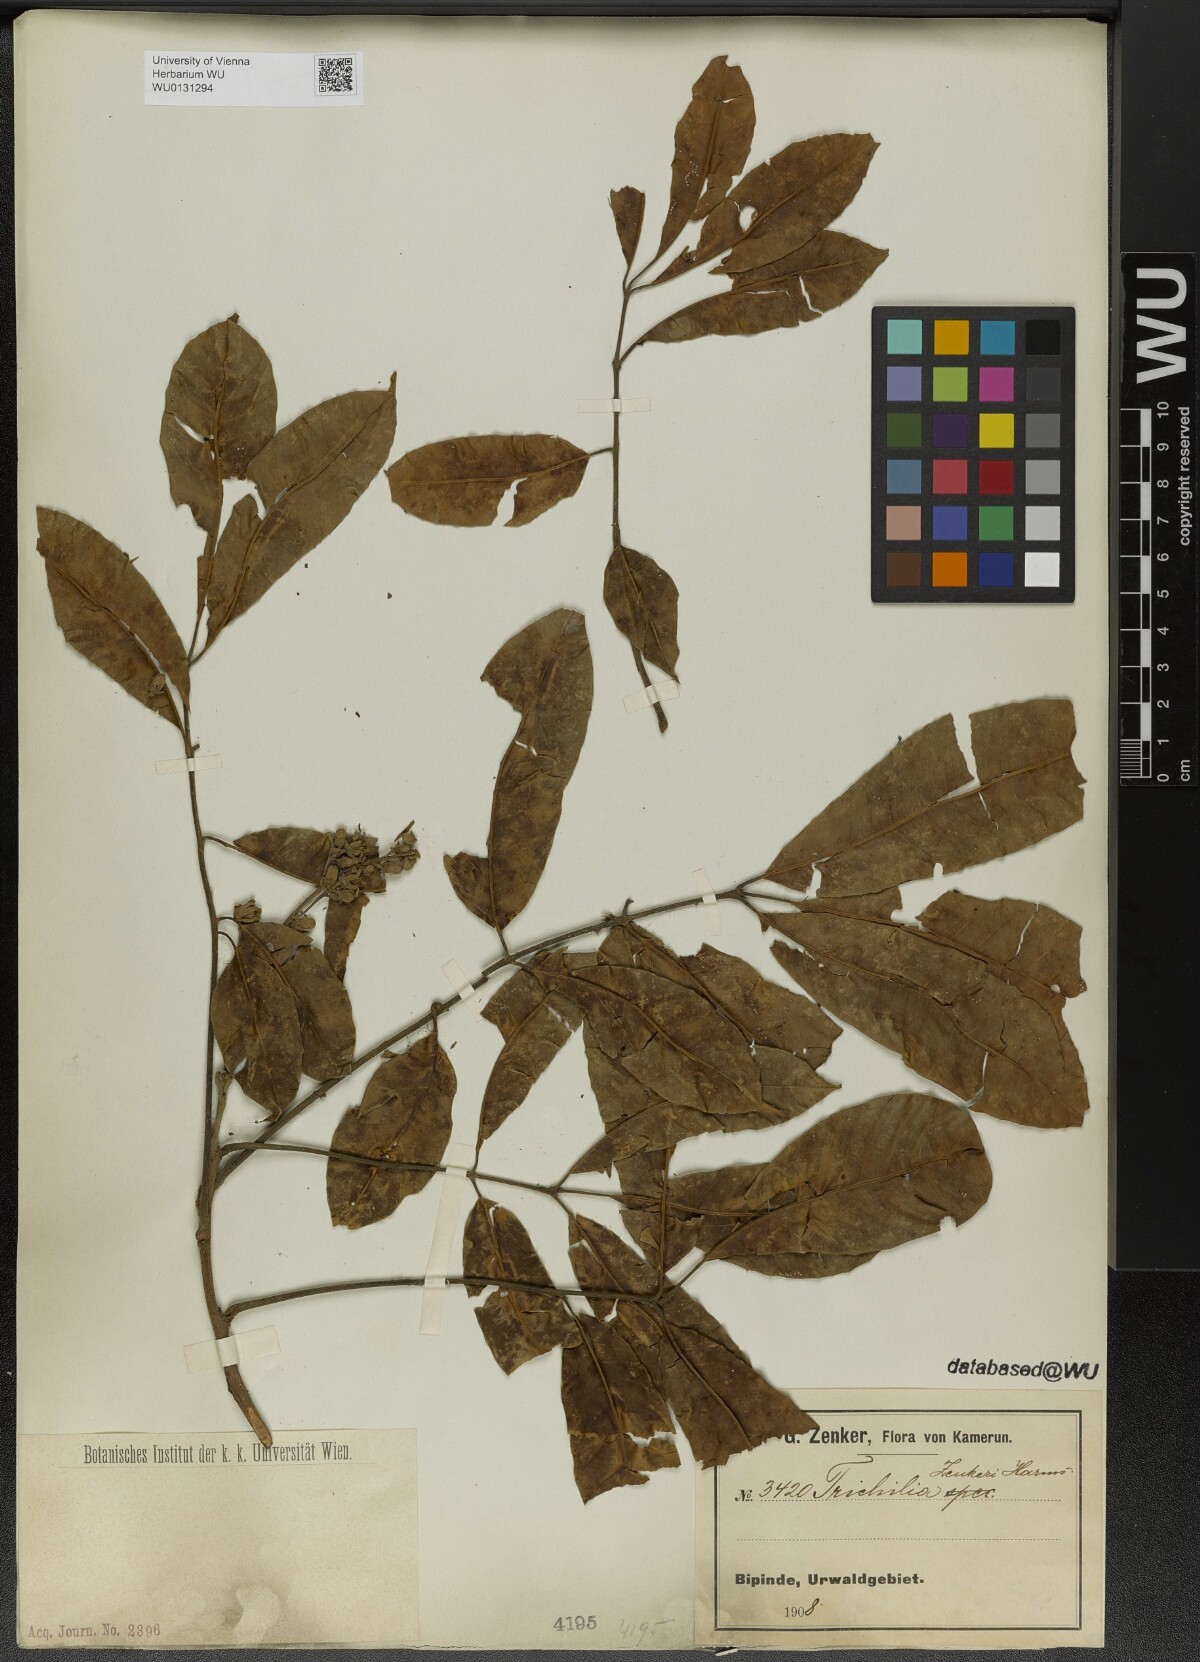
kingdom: Plantae
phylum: Tracheophyta
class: Magnoliopsida
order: Sapindales
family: Meliaceae
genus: Trichilia
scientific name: Trichilia welwitschii
